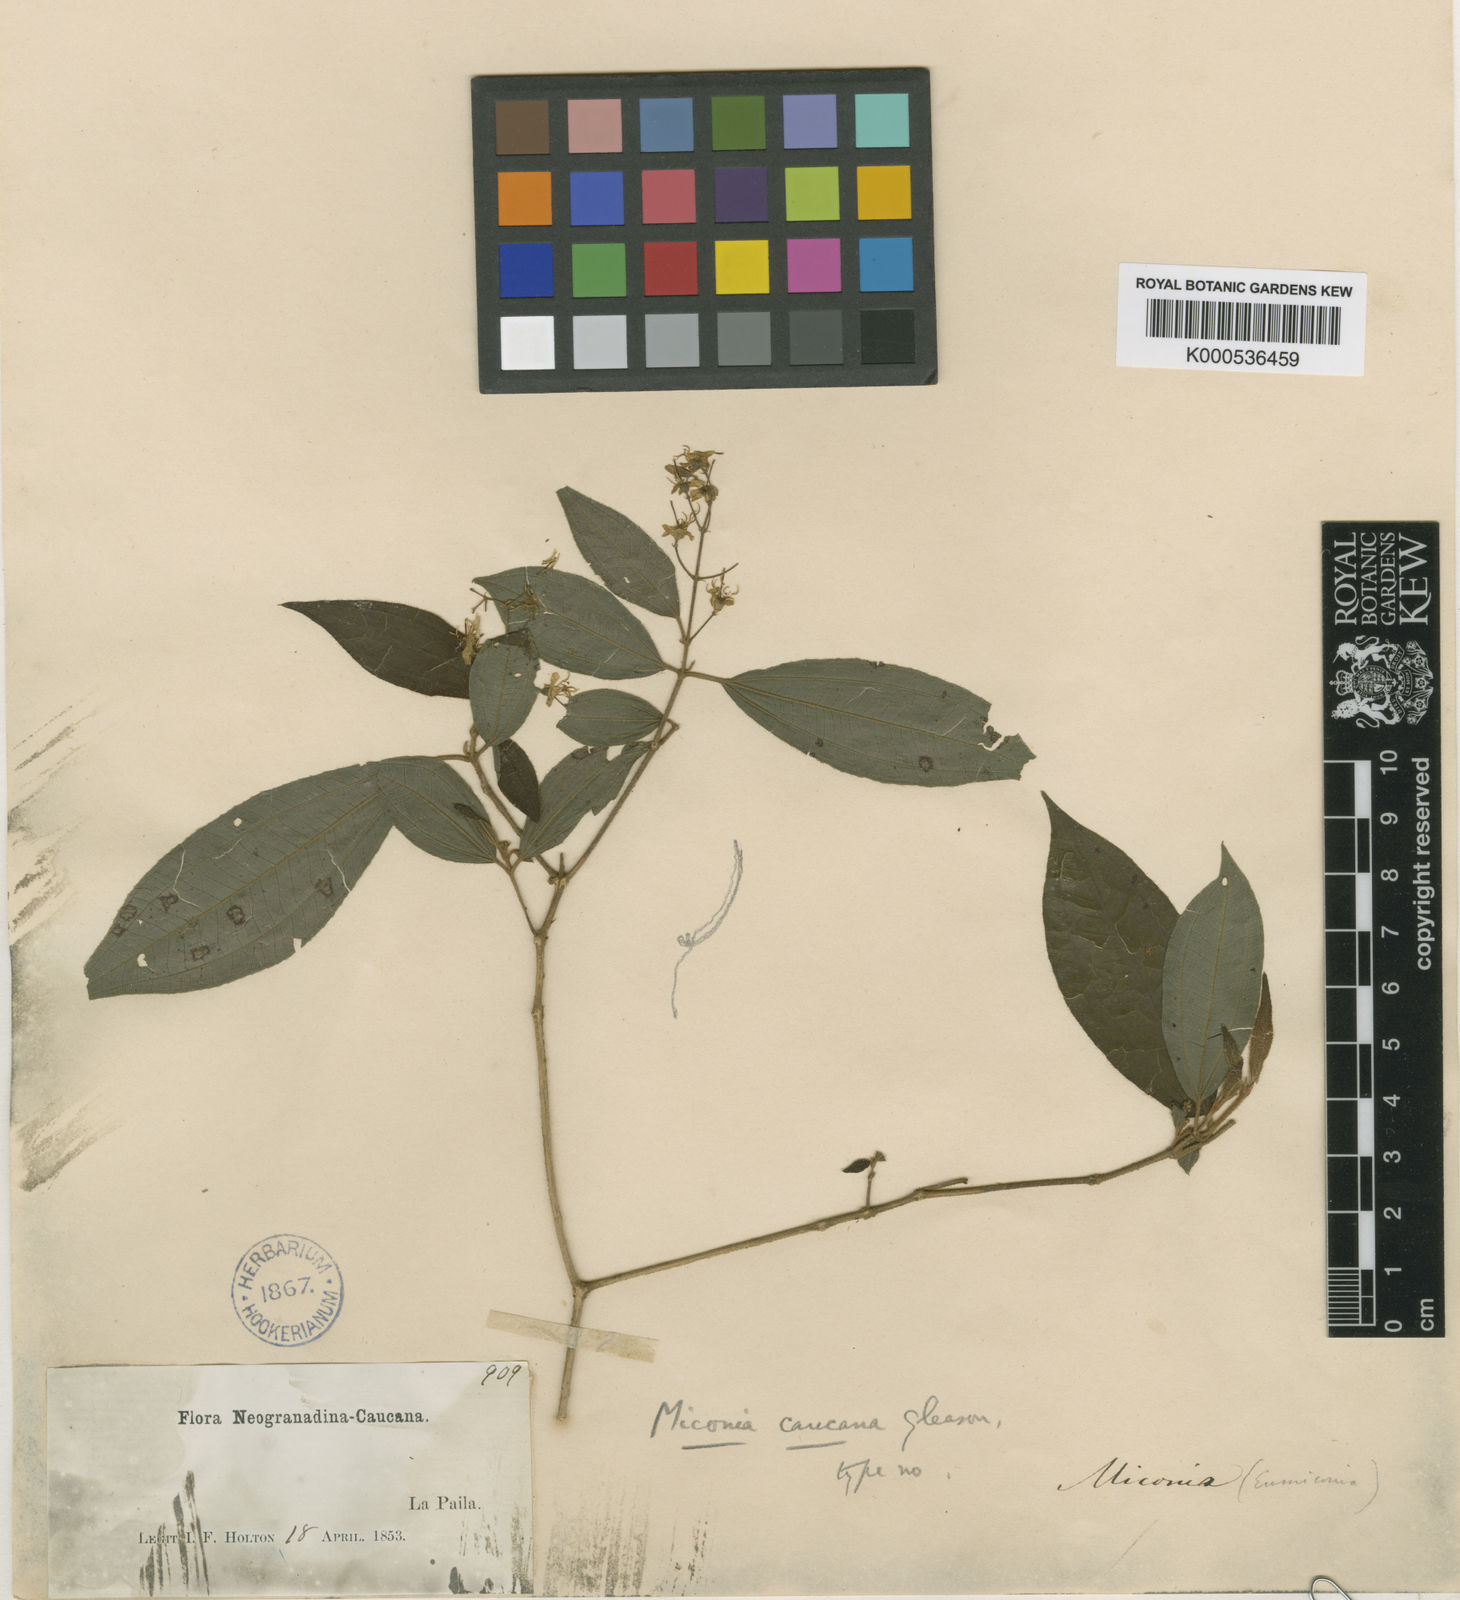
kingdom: Plantae
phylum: Tracheophyta
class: Magnoliopsida
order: Myrtales
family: Melastomataceae
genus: Miconia
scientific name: Miconia caucana
